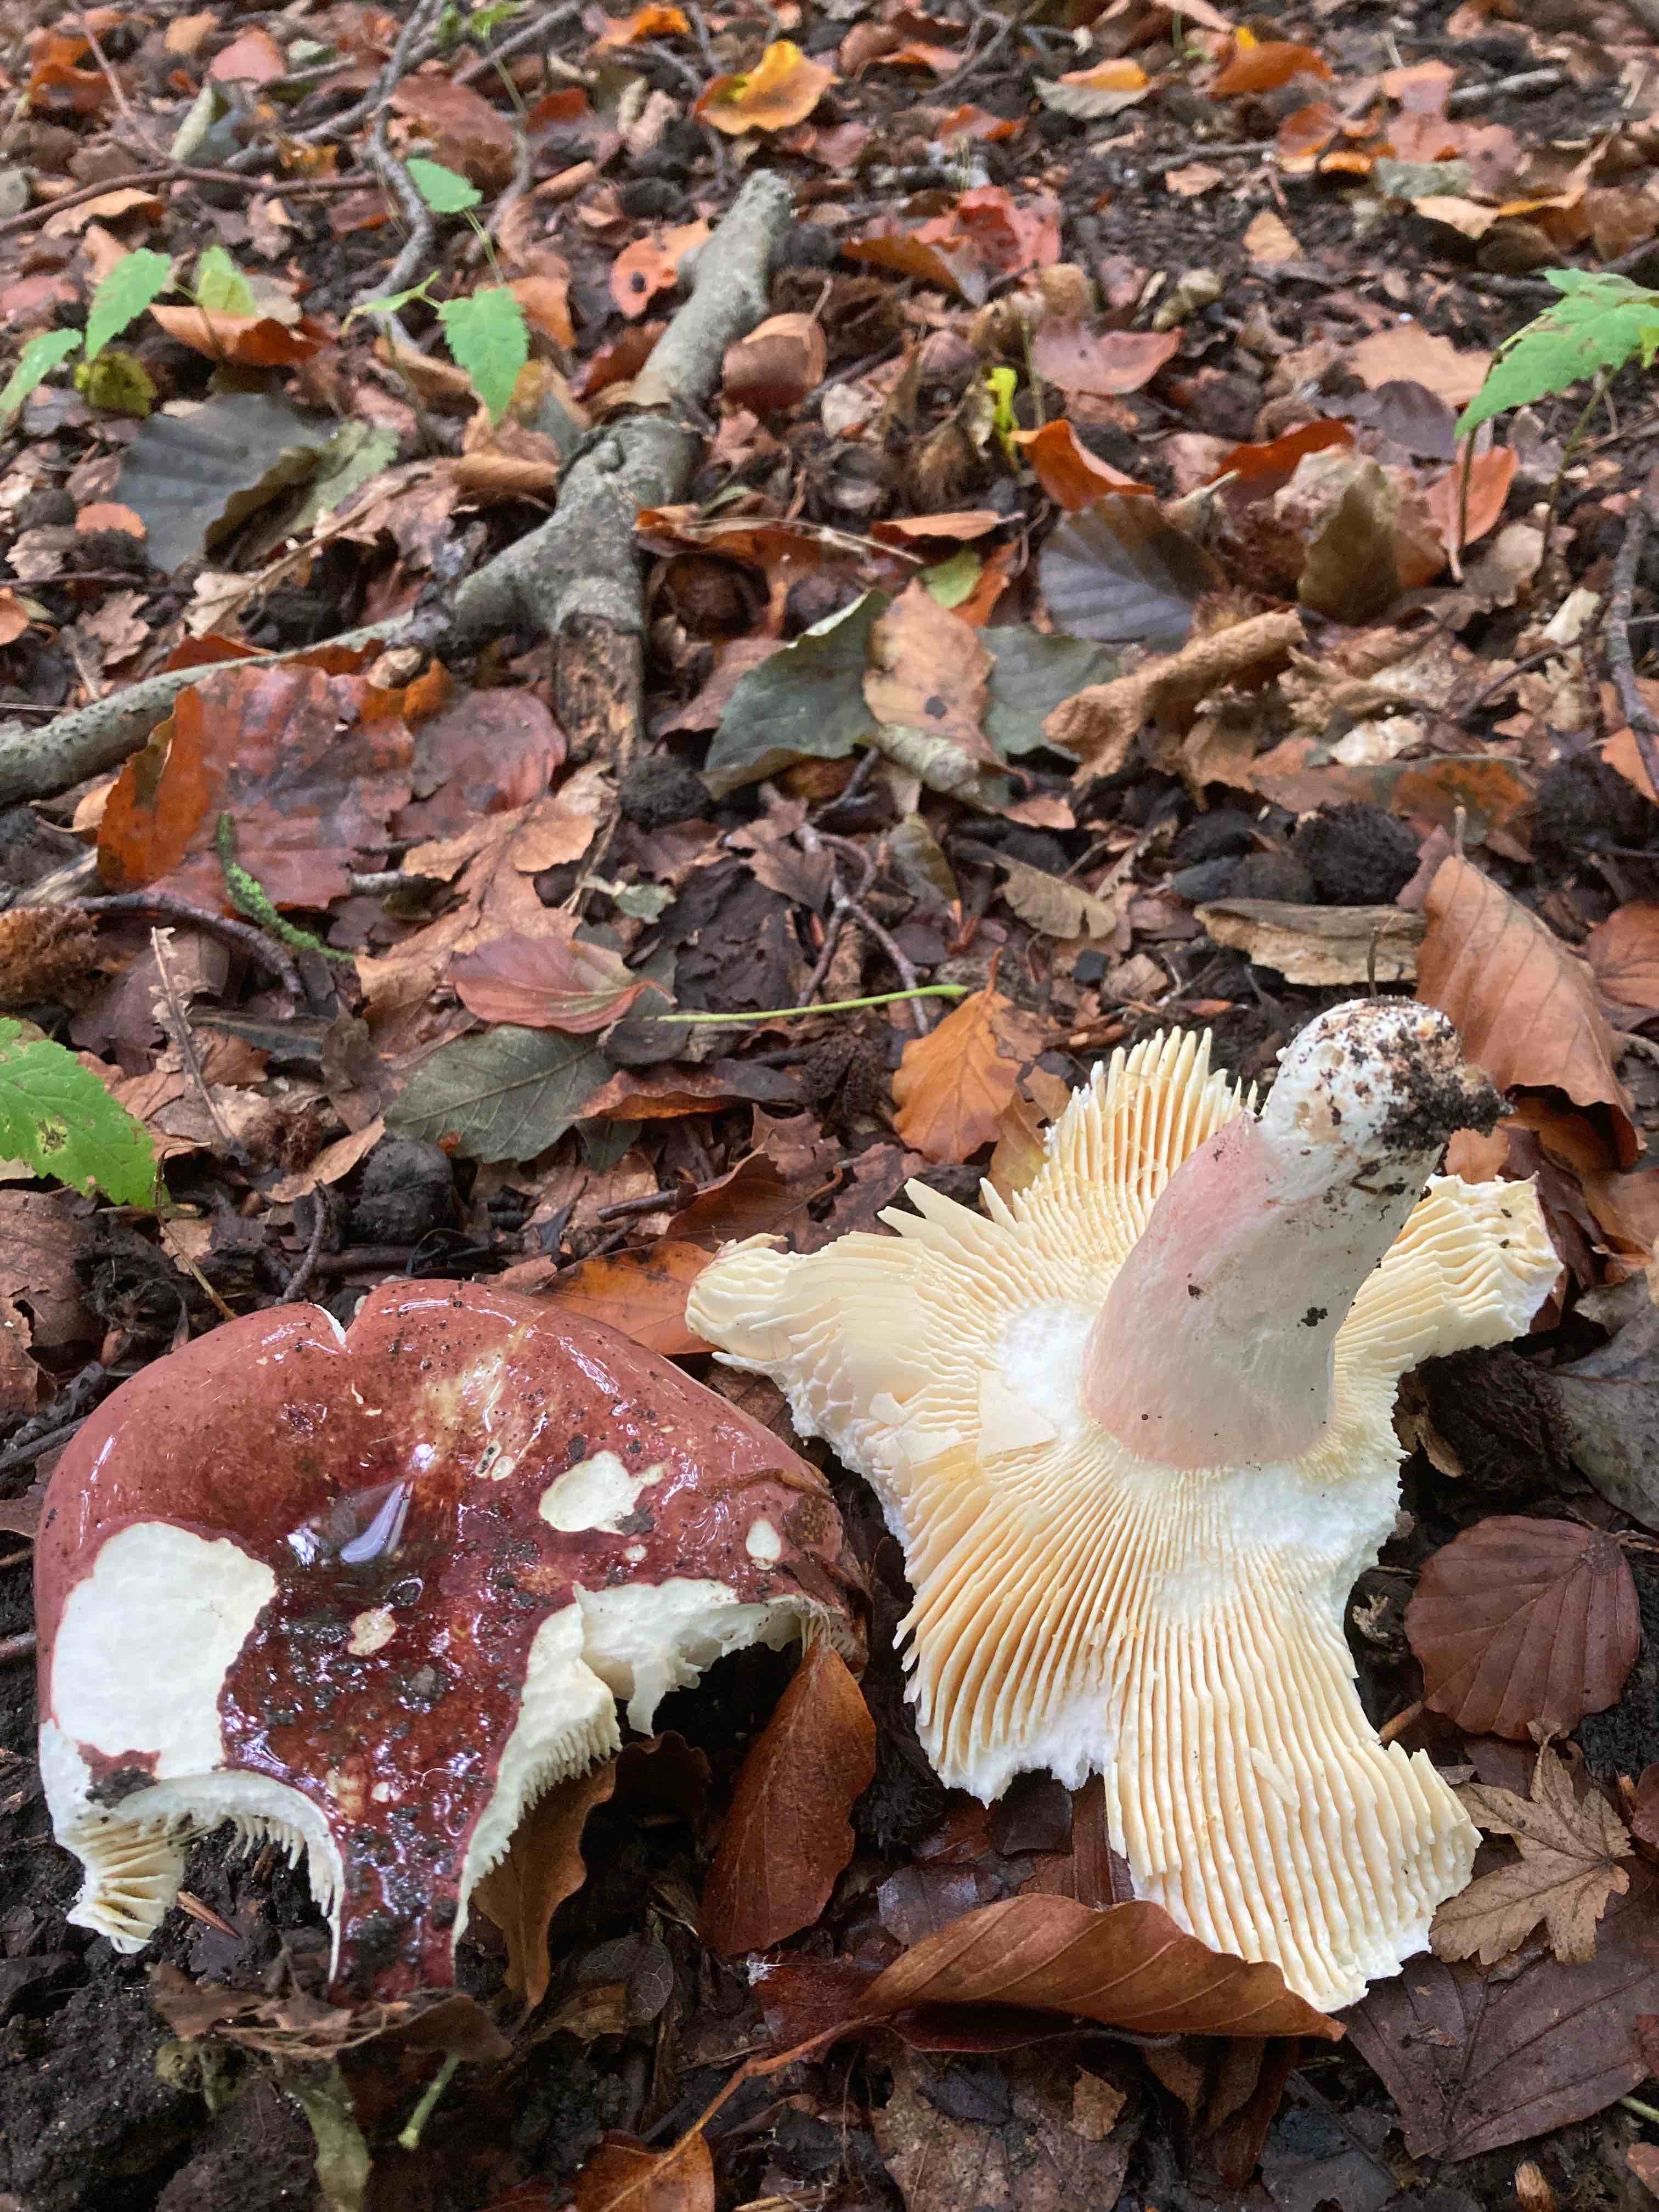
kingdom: Fungi
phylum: Basidiomycota
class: Agaricomycetes
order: Russulales
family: Russulaceae
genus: Russula
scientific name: Russula olivacea
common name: stor skørhat
